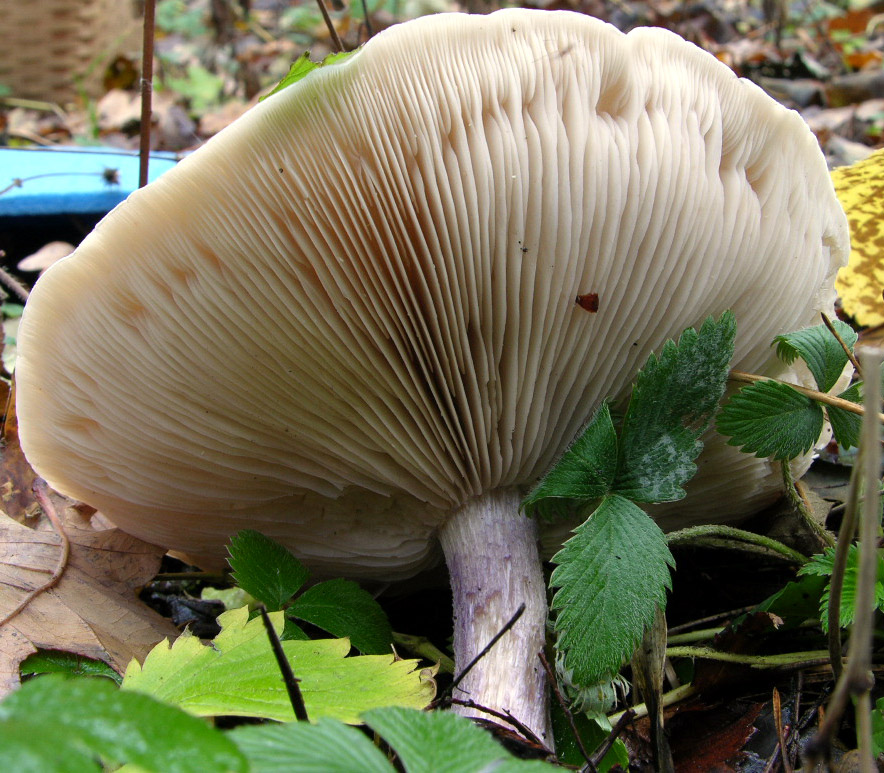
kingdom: Fungi
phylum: Basidiomycota
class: Agaricomycetes
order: Agaricales
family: Tricholomataceae
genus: Lepista
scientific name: Lepista personata
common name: bleg hekseringshat
